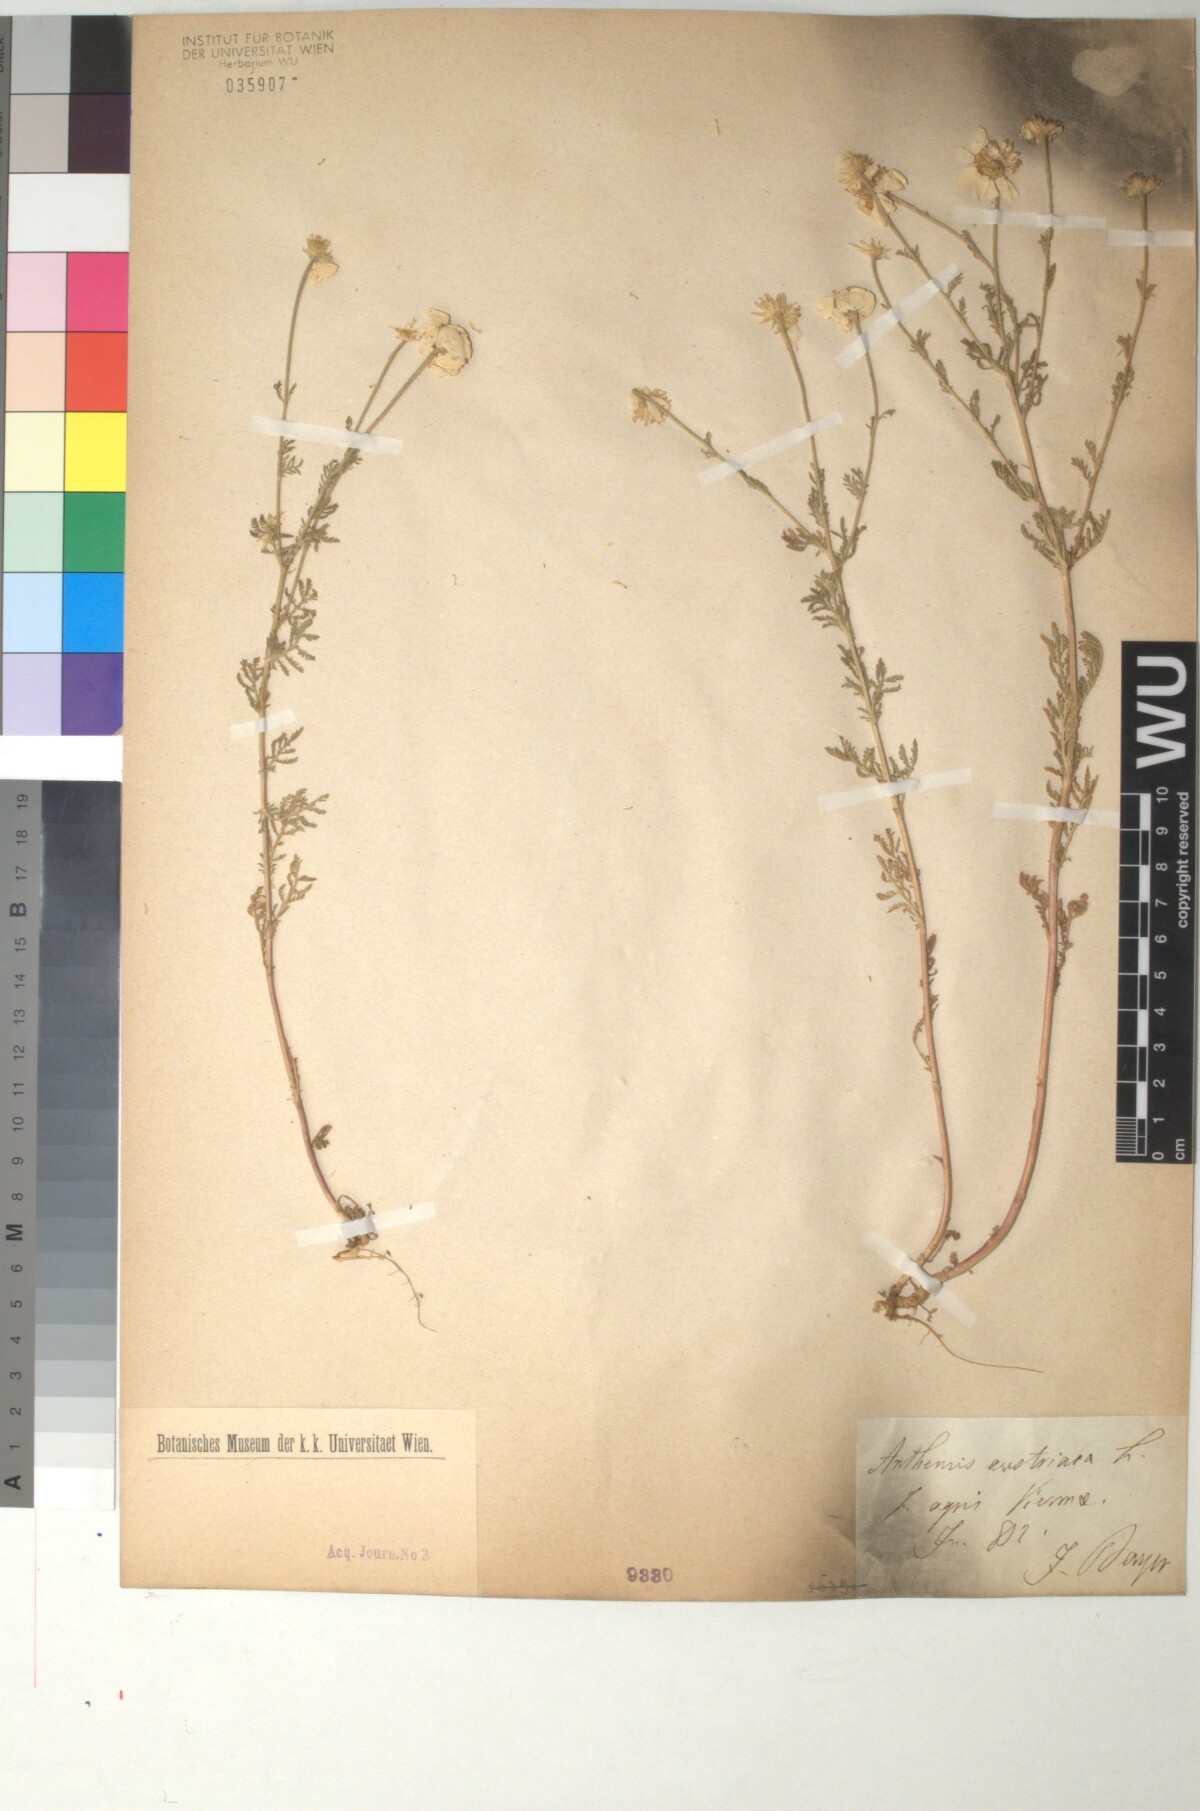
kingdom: Plantae
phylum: Tracheophyta
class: Magnoliopsida
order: Asterales
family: Asteraceae
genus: Cota
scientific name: Cota austriaca
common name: Austrian chamomile
